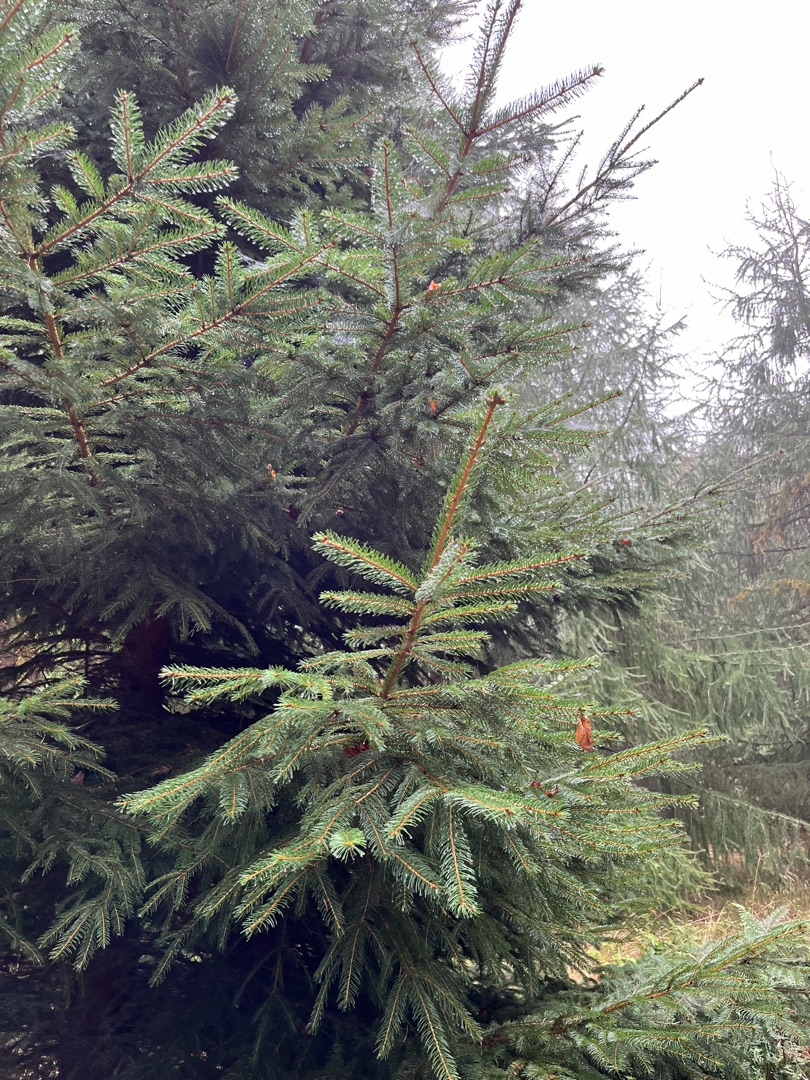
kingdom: Plantae
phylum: Tracheophyta
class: Pinopsida
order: Pinales
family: Pinaceae
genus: Picea
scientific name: Picea abies
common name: Rød-gran
